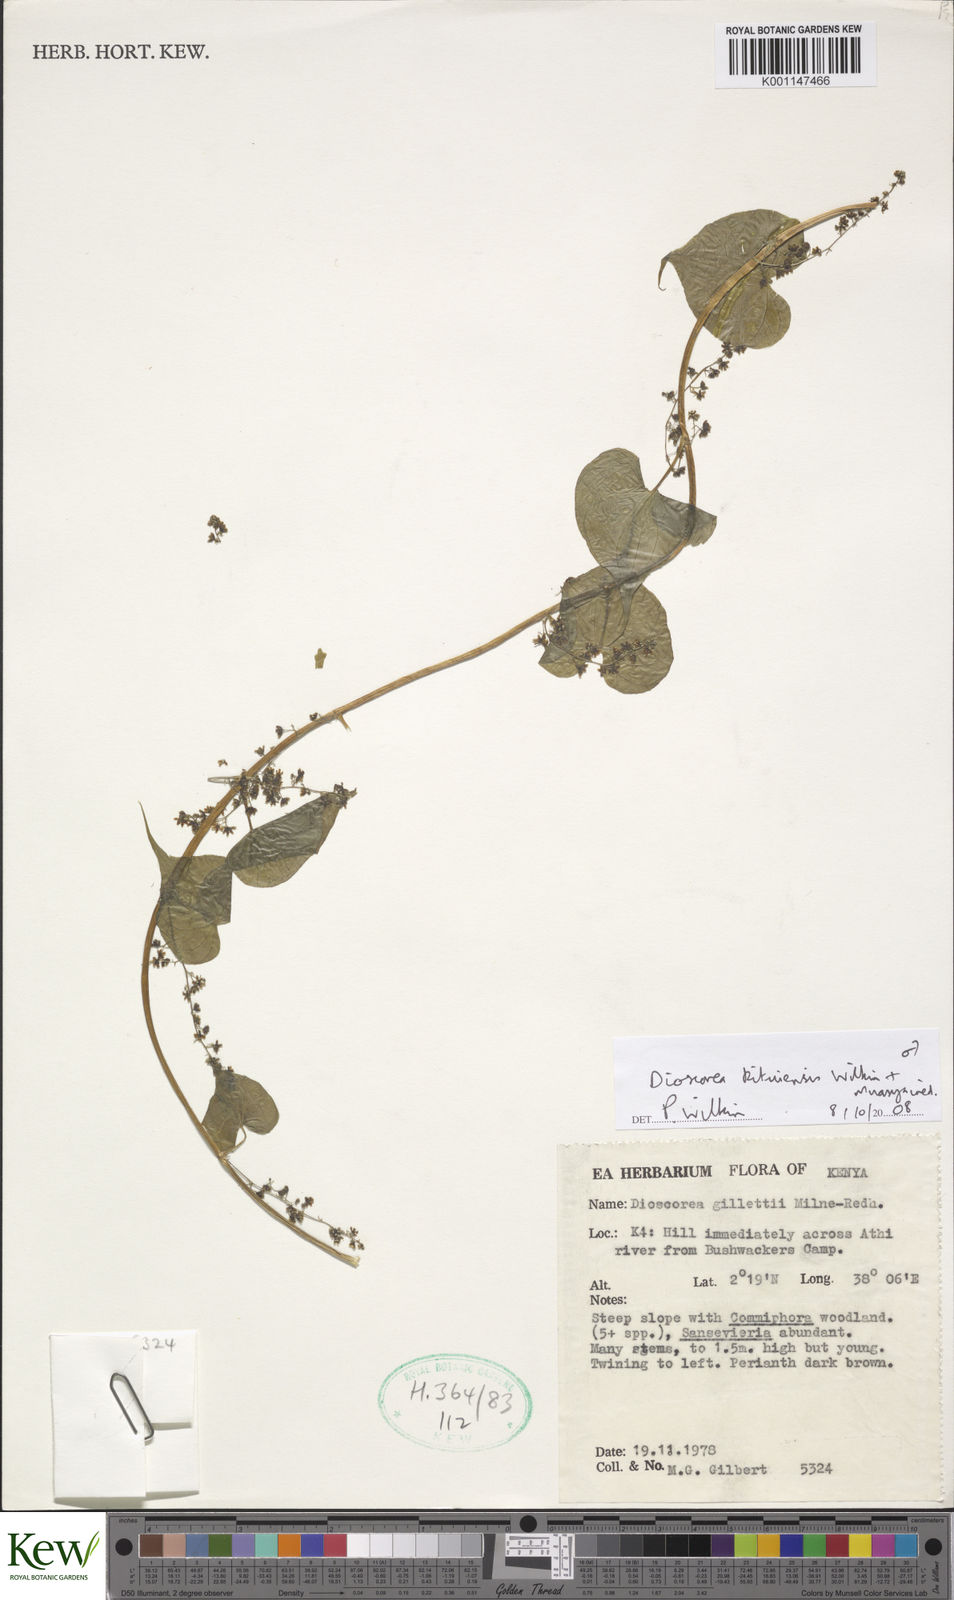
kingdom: Plantae
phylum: Tracheophyta
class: Liliopsida
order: Dioscoreales
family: Dioscoreaceae
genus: Dioscorea
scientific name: Dioscorea kituiensis
